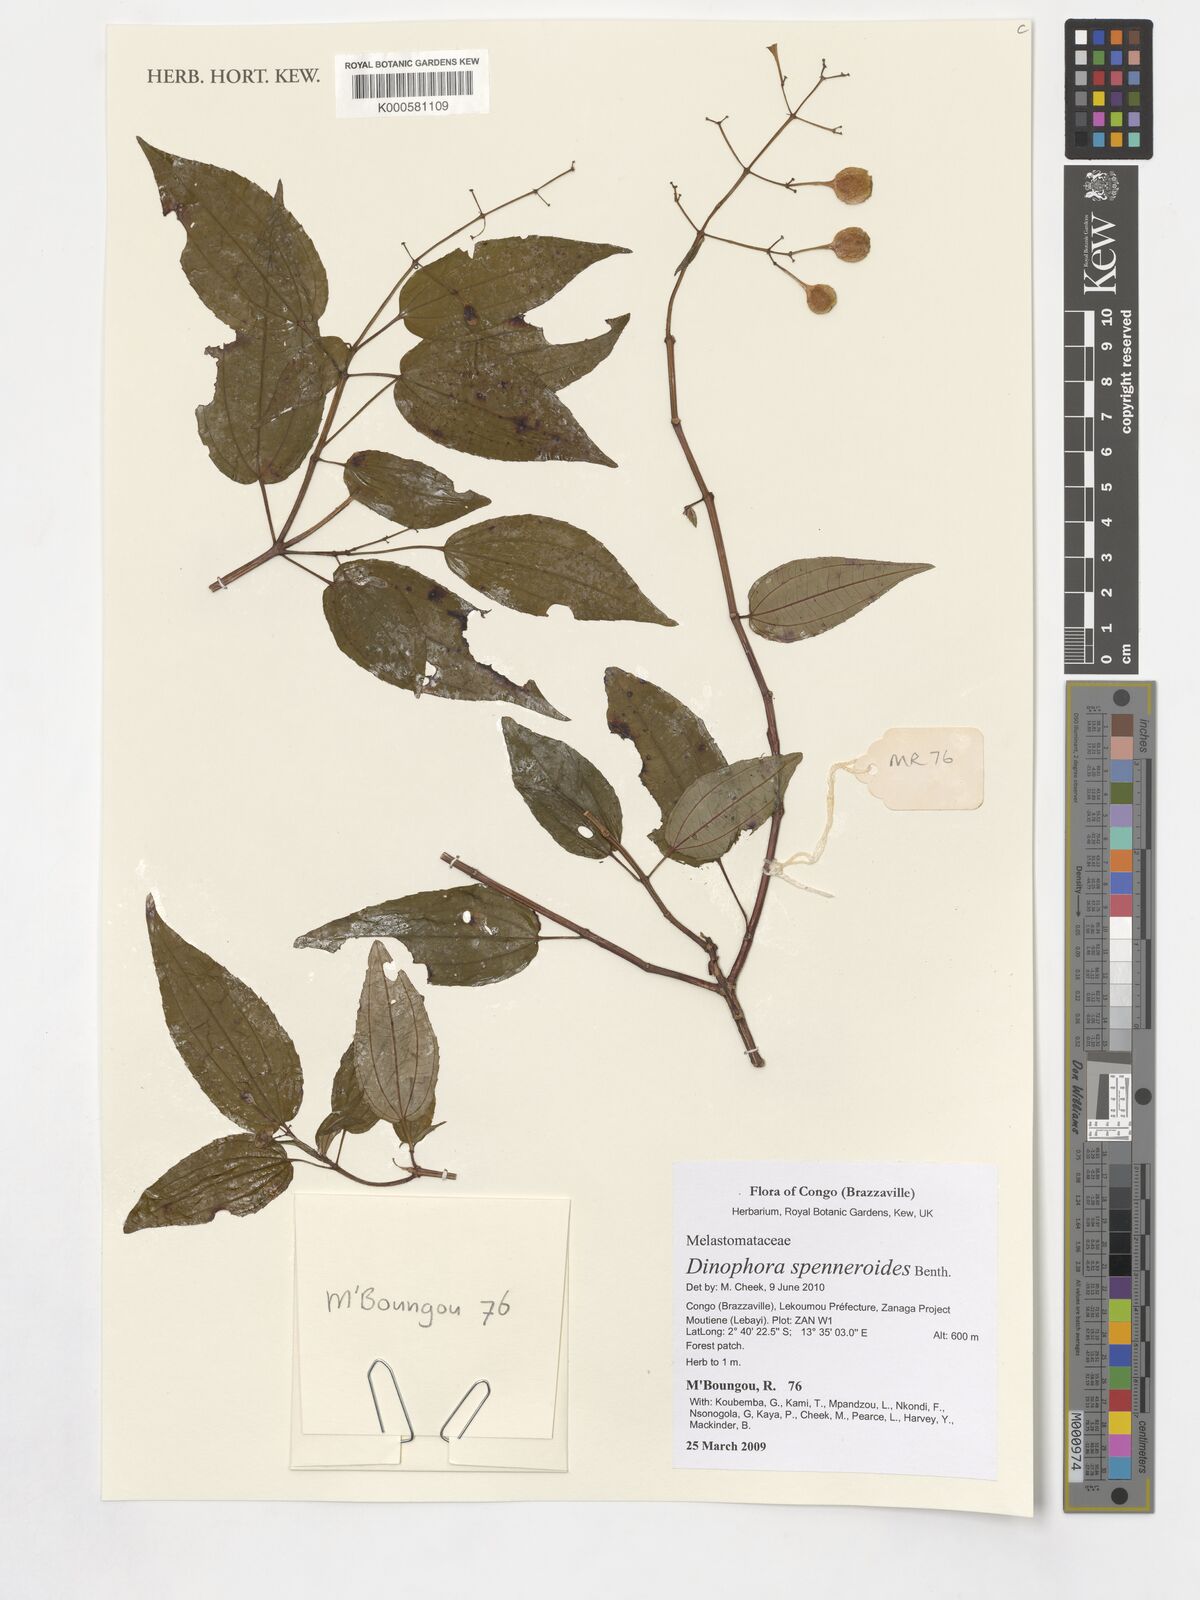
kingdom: Plantae
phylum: Tracheophyta
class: Magnoliopsida
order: Myrtales
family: Melastomataceae
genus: Dinophora
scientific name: Dinophora spenneroides
